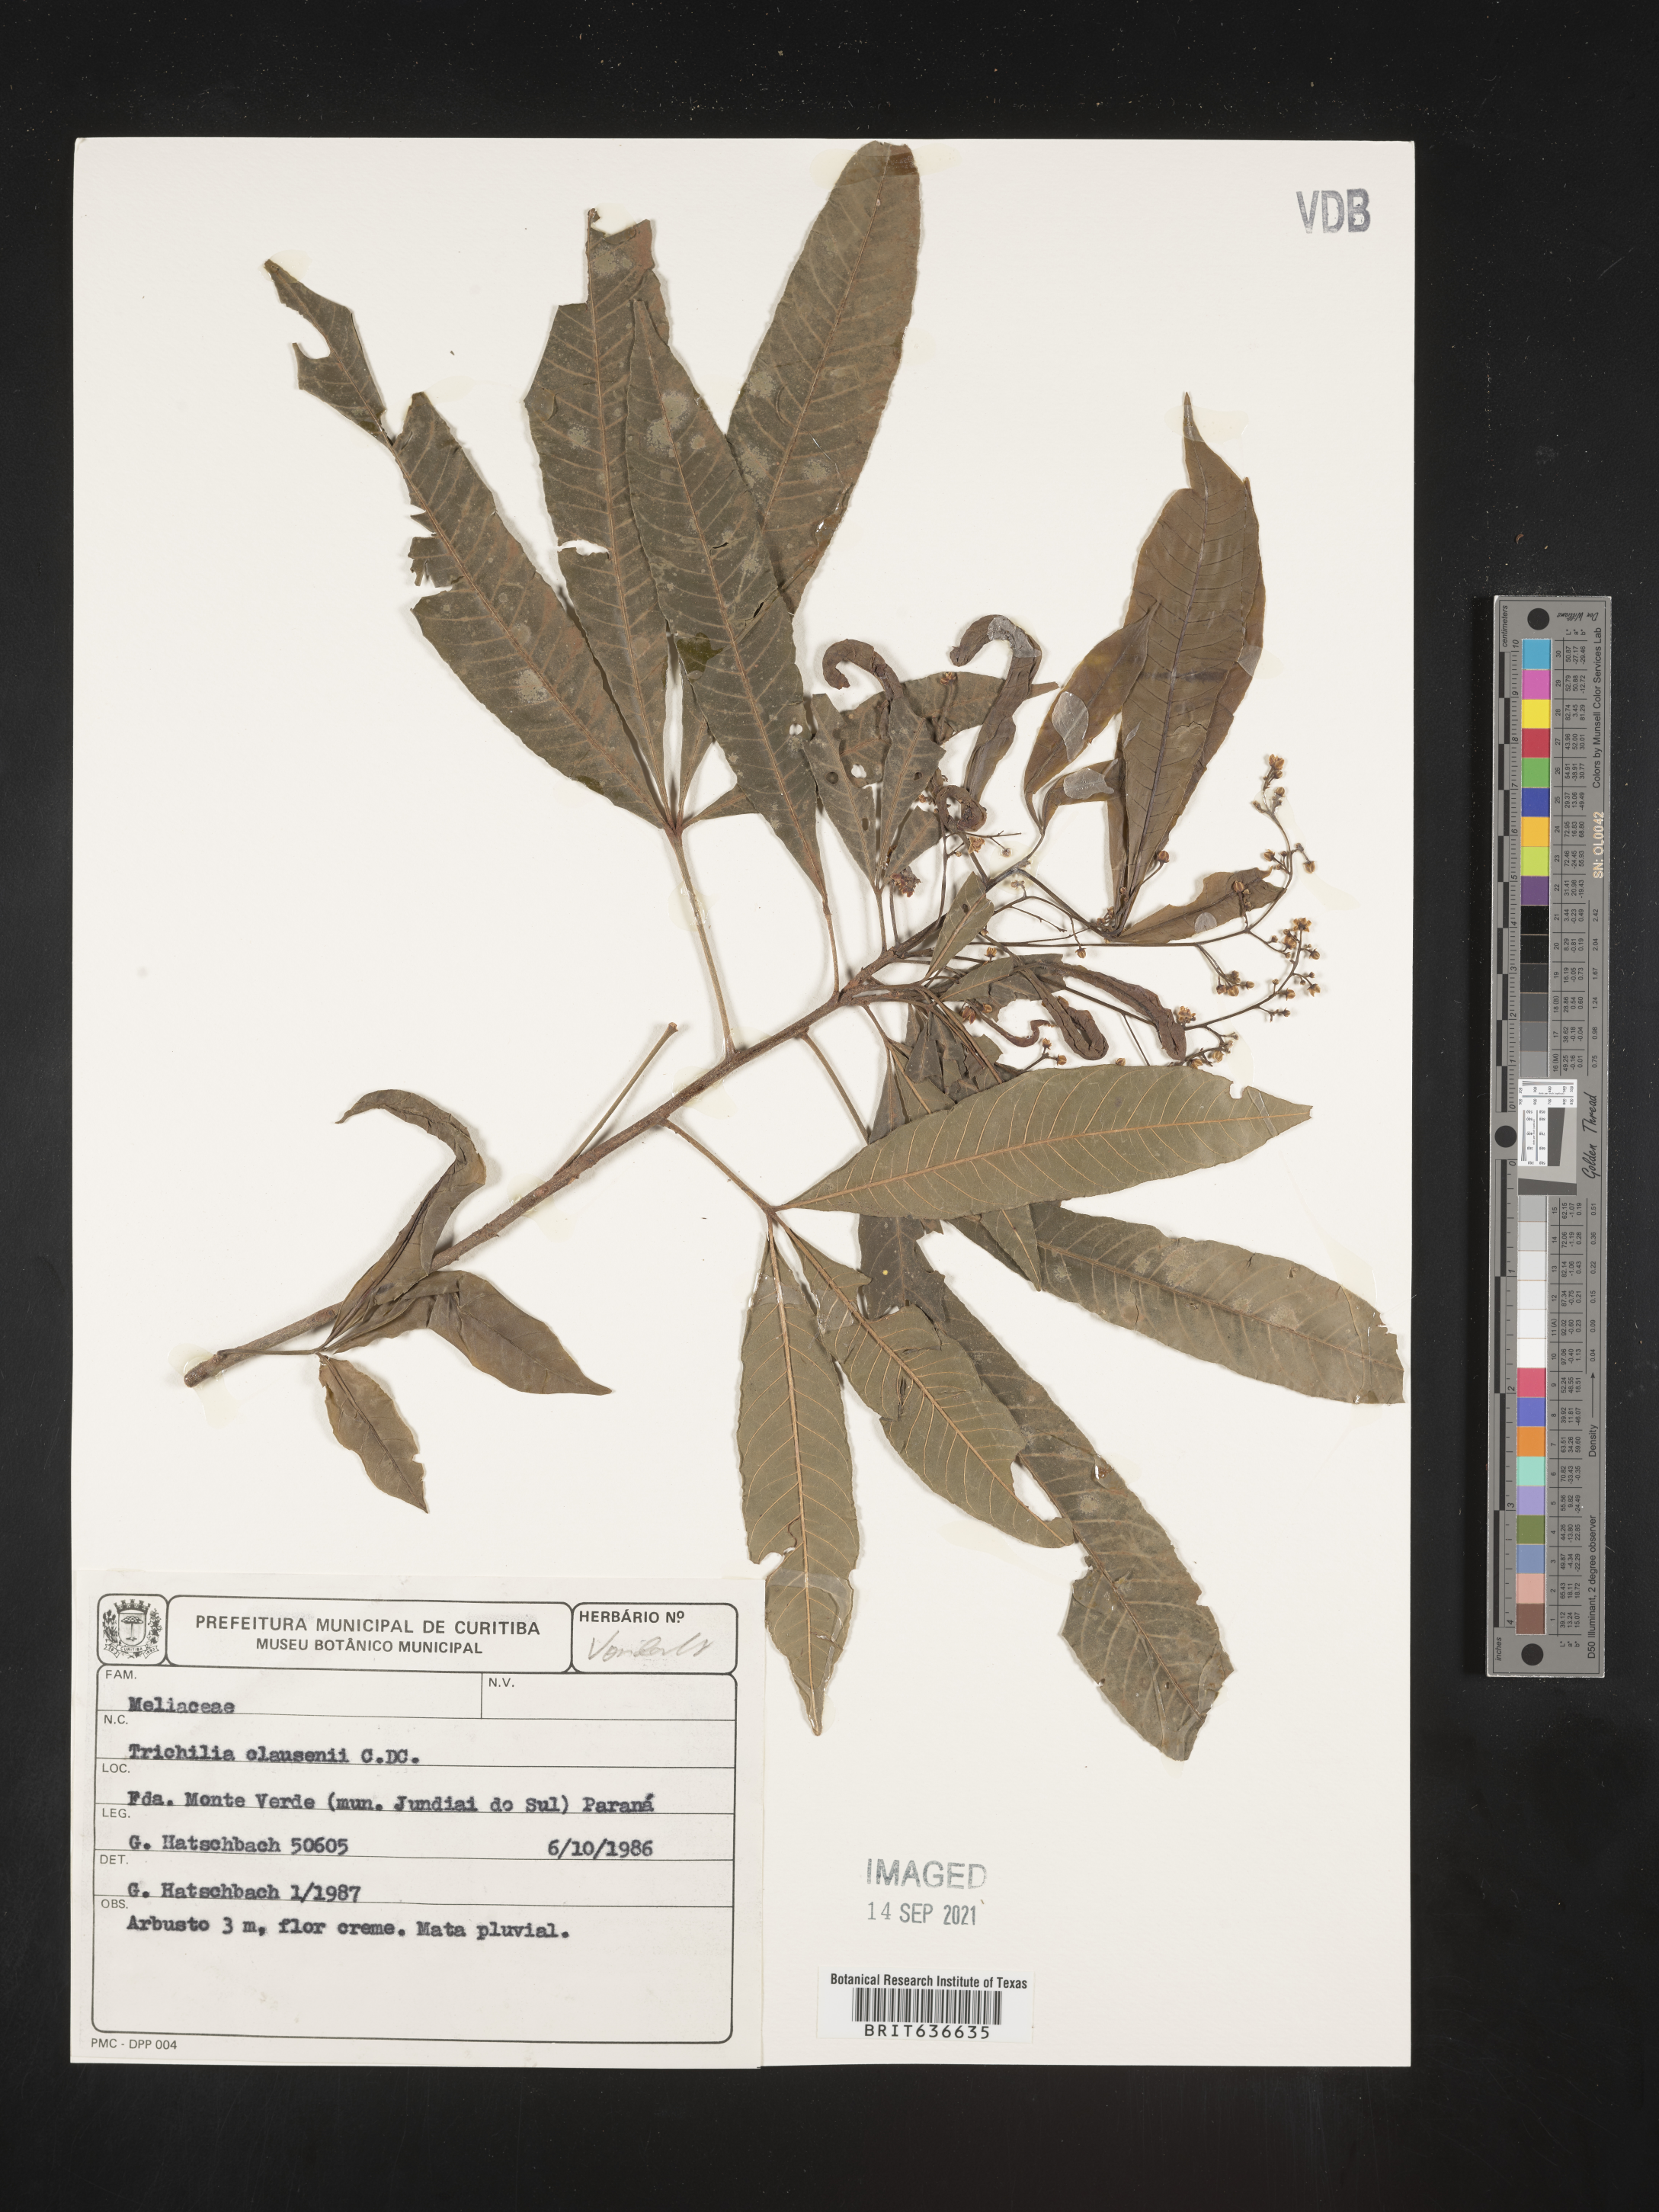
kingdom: Plantae
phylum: Tracheophyta
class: Magnoliopsida
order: Sapindales
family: Meliaceae
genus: Trichilia
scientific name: Trichilia
